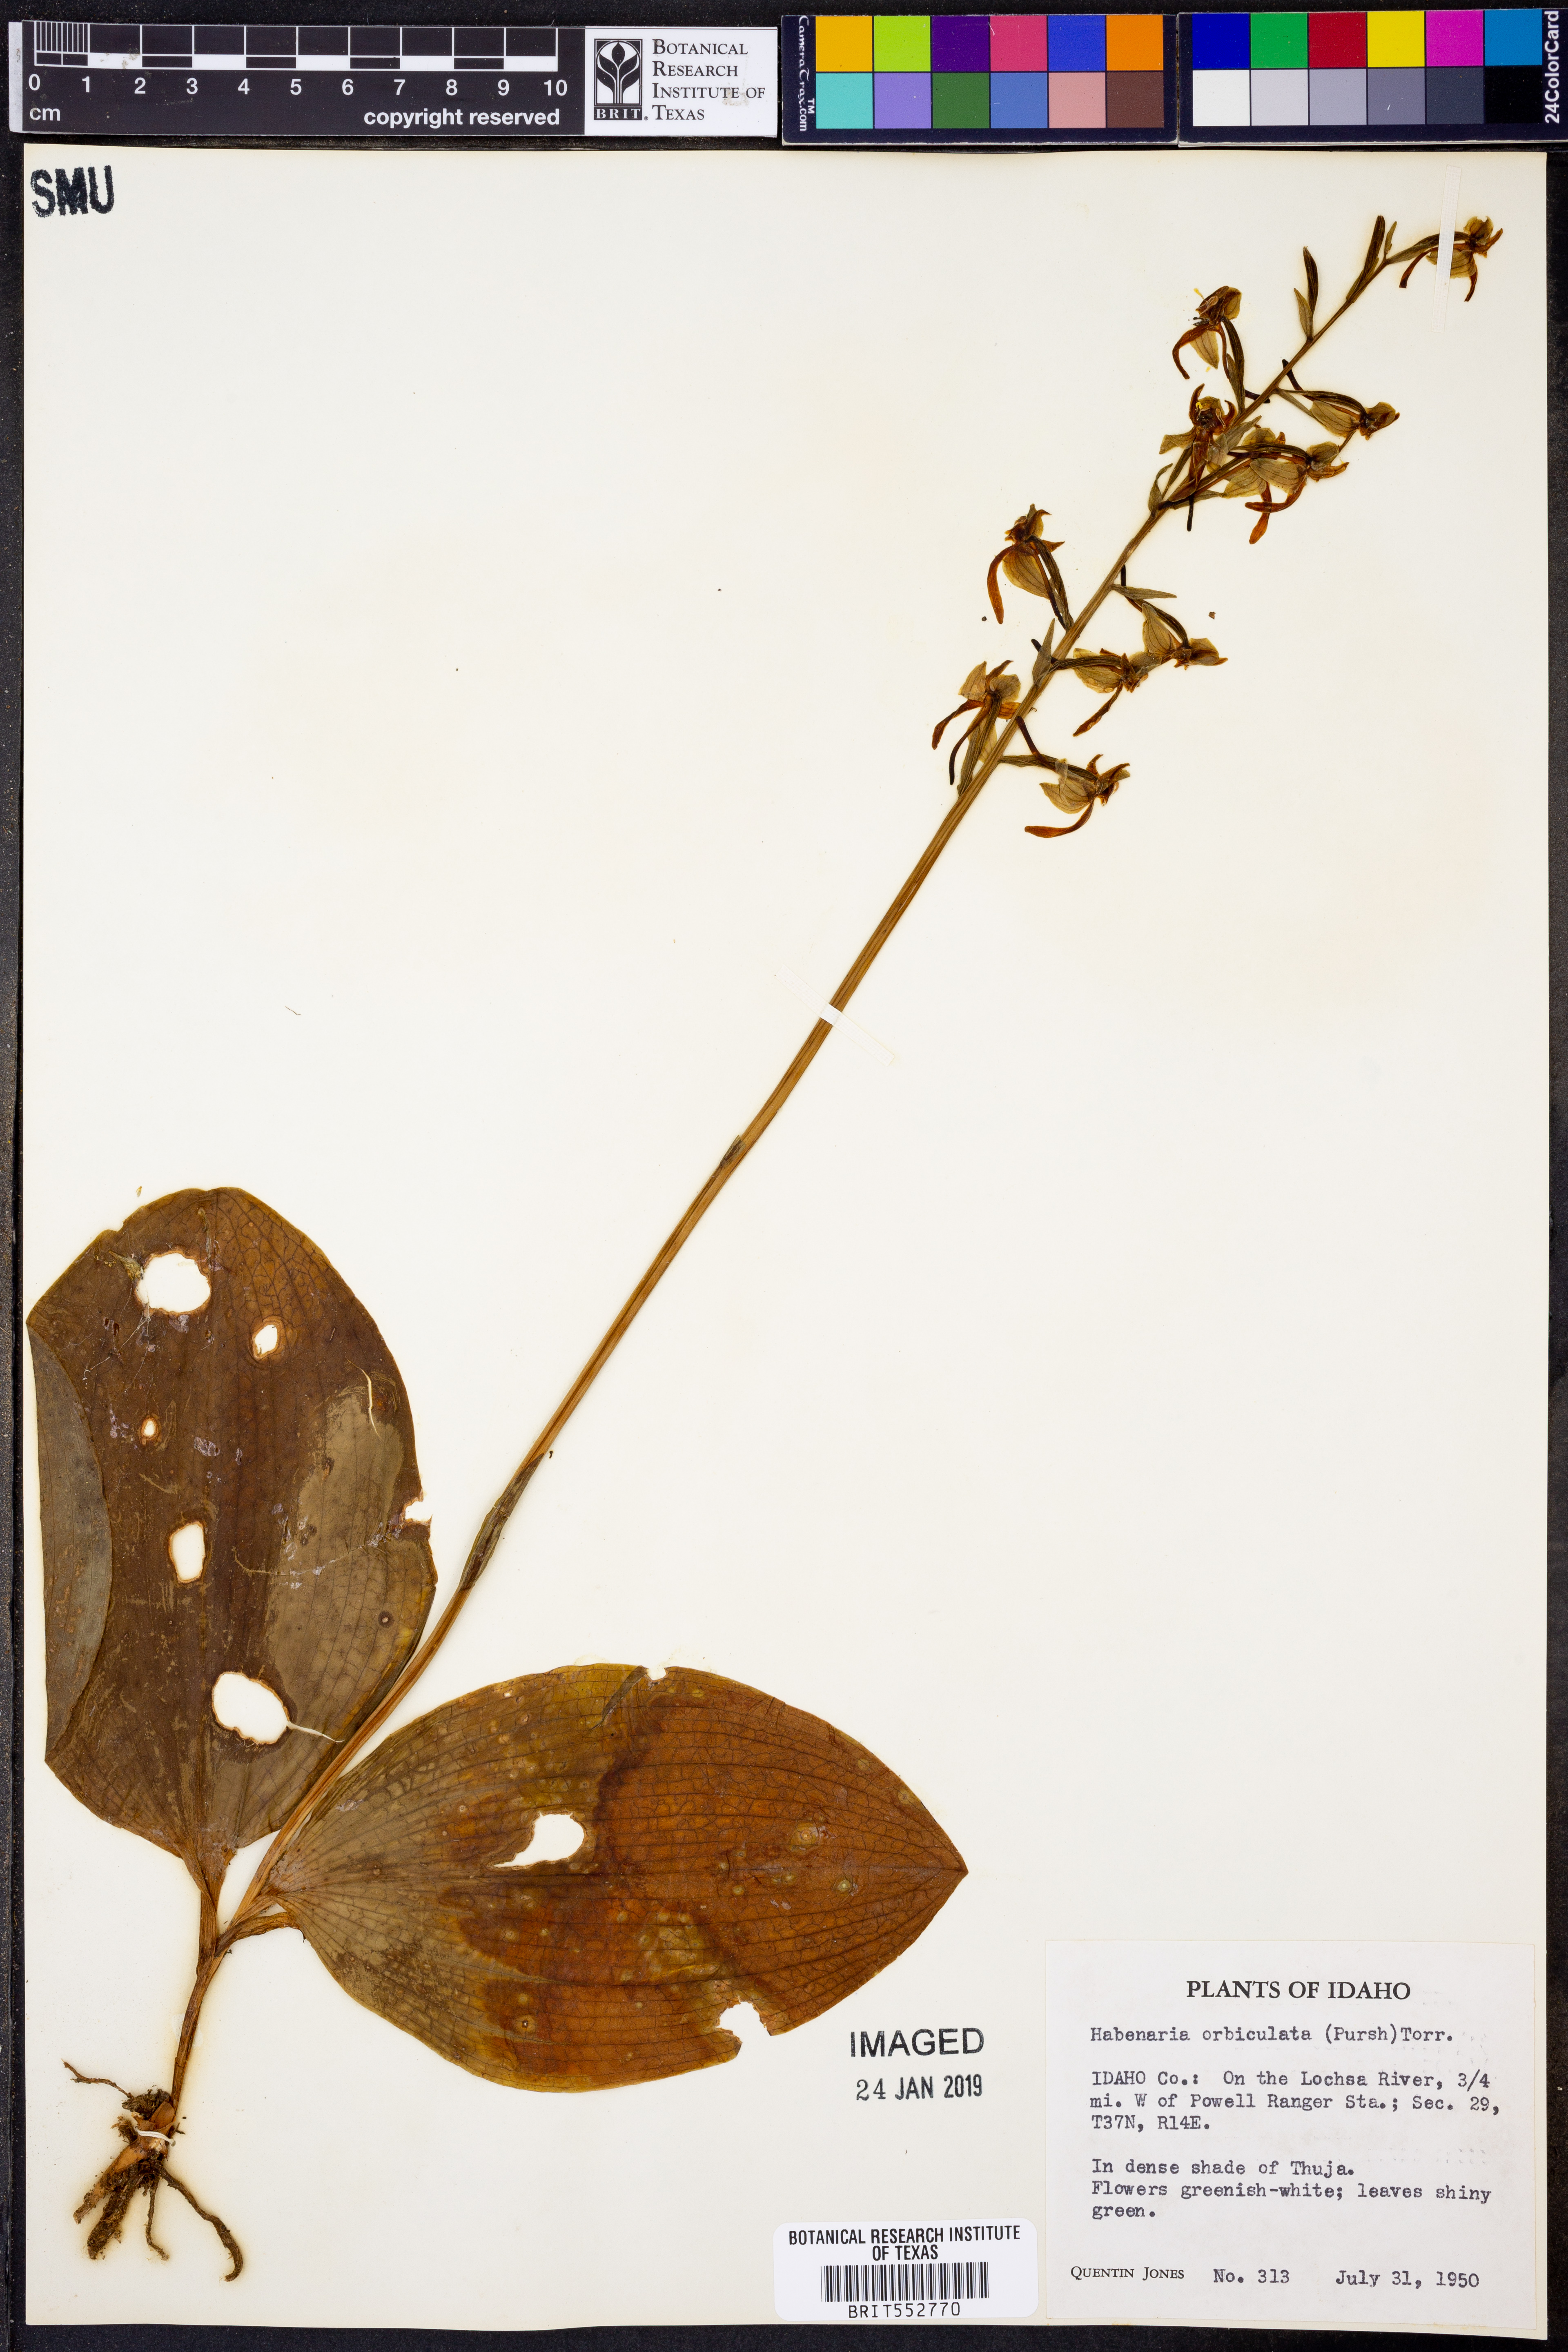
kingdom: Plantae
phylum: Tracheophyta
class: Liliopsida
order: Asparagales
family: Orchidaceae
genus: Platanthera
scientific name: Platanthera orbiculata
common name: Large round-leaved orchid
